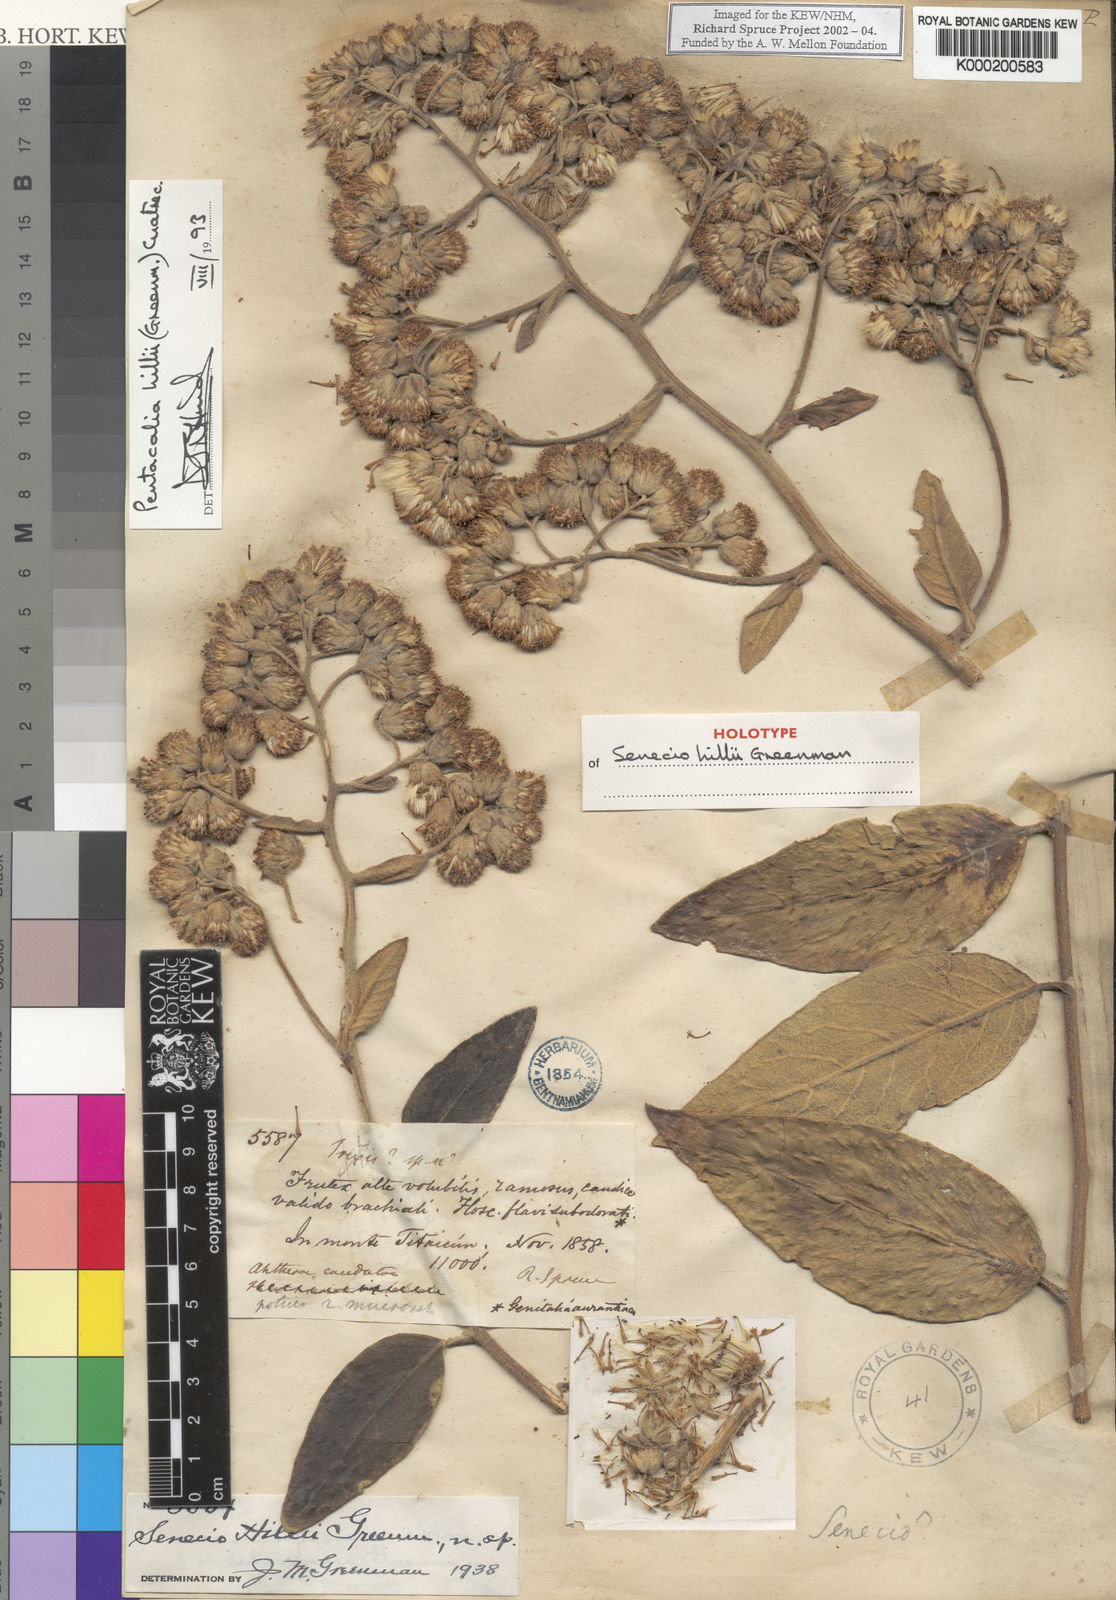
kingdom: Plantae
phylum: Tracheophyta
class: Magnoliopsida
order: Asterales
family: Asteraceae
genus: Pentacalia
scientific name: Pentacalia hillii
